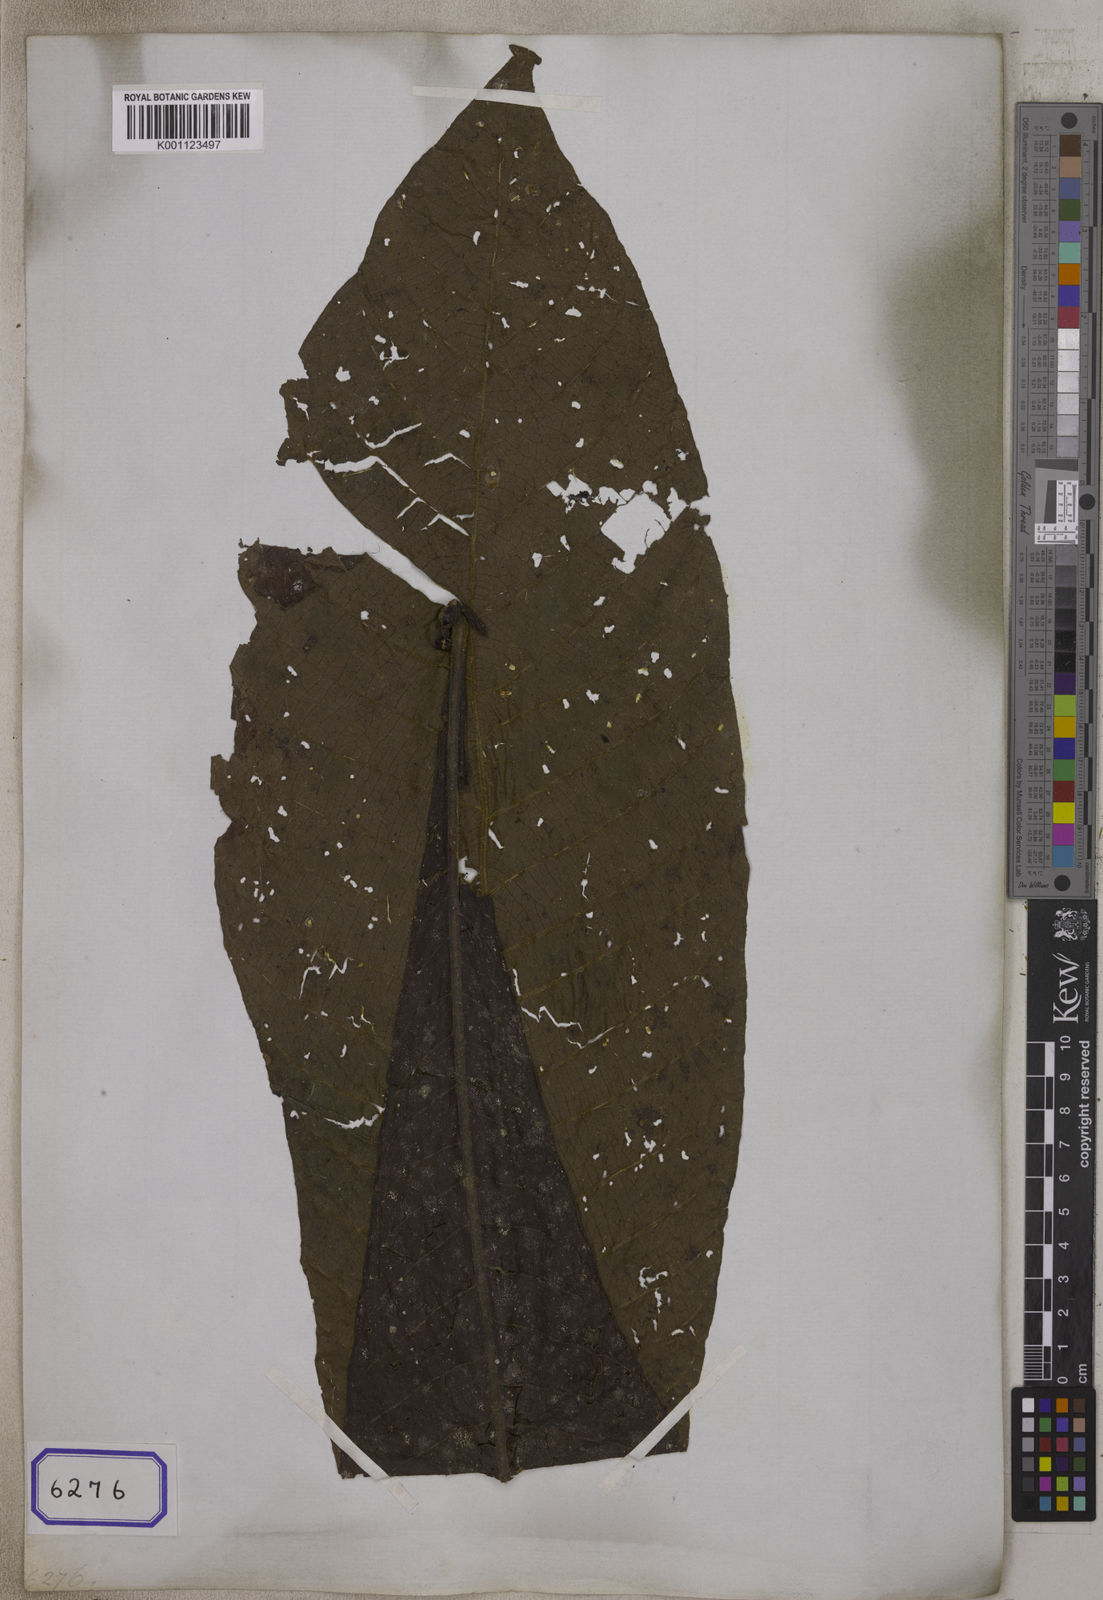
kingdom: Plantae
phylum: Tracheophyta
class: Magnoliopsida
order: Gentianales
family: Rubiaceae
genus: Wendlandia
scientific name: Wendlandia
